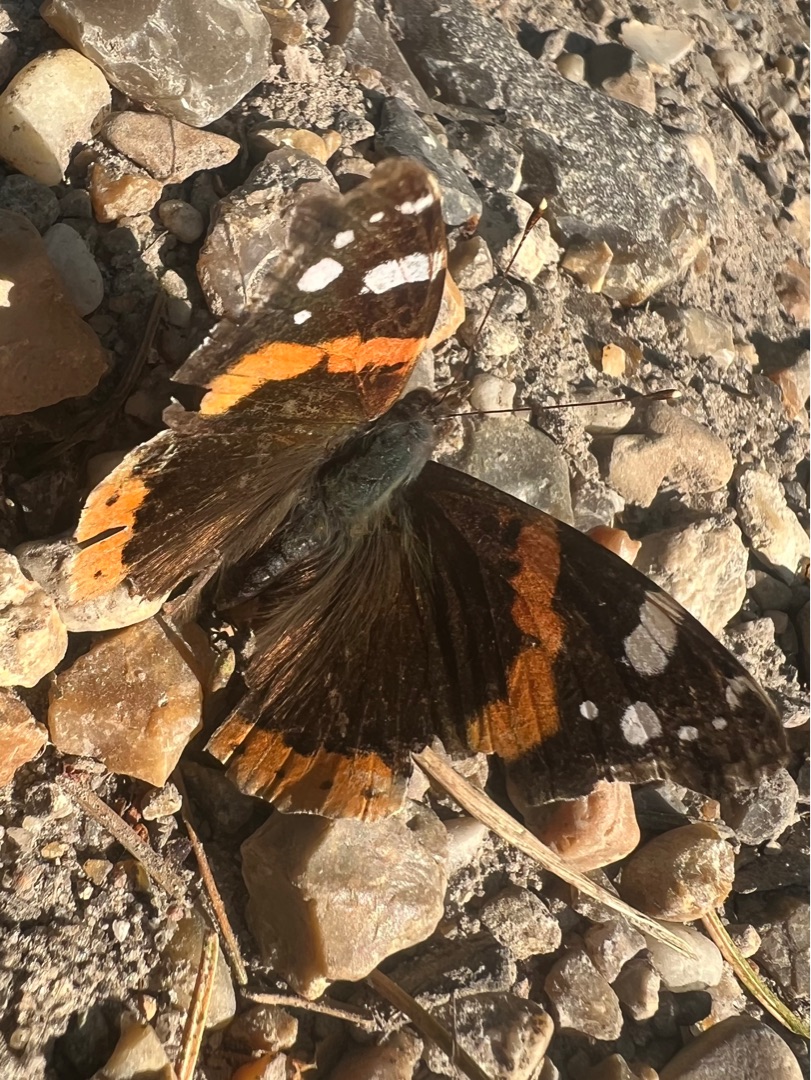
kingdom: Animalia
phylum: Arthropoda
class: Insecta
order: Lepidoptera
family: Nymphalidae
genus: Vanessa
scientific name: Vanessa atalanta
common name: Admiral
